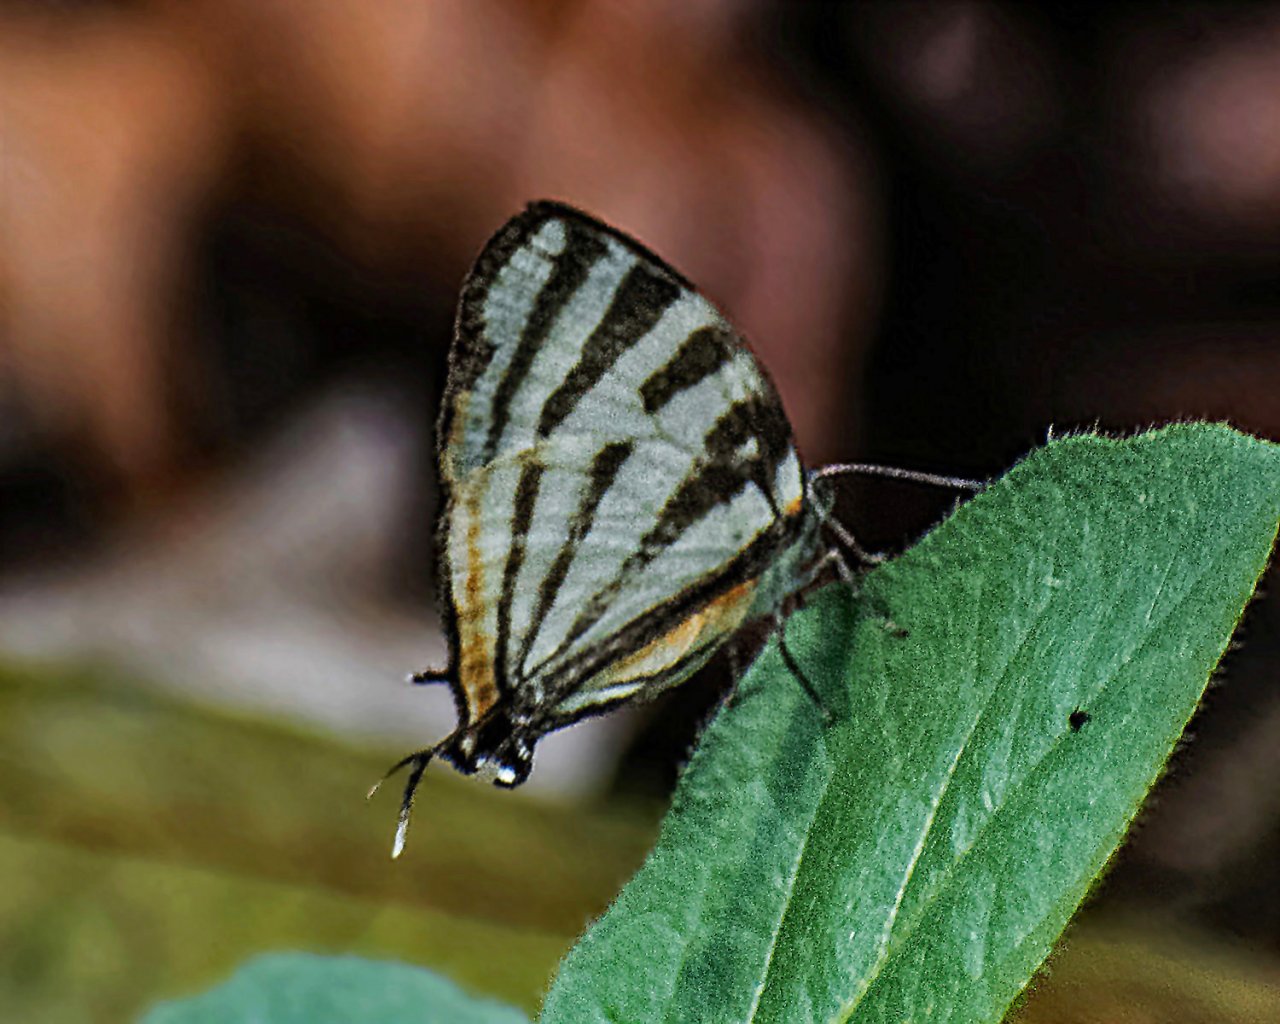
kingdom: Animalia
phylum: Arthropoda
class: Insecta
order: Lepidoptera
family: Lycaenidae
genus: Arawacus
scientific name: Arawacus togarna
